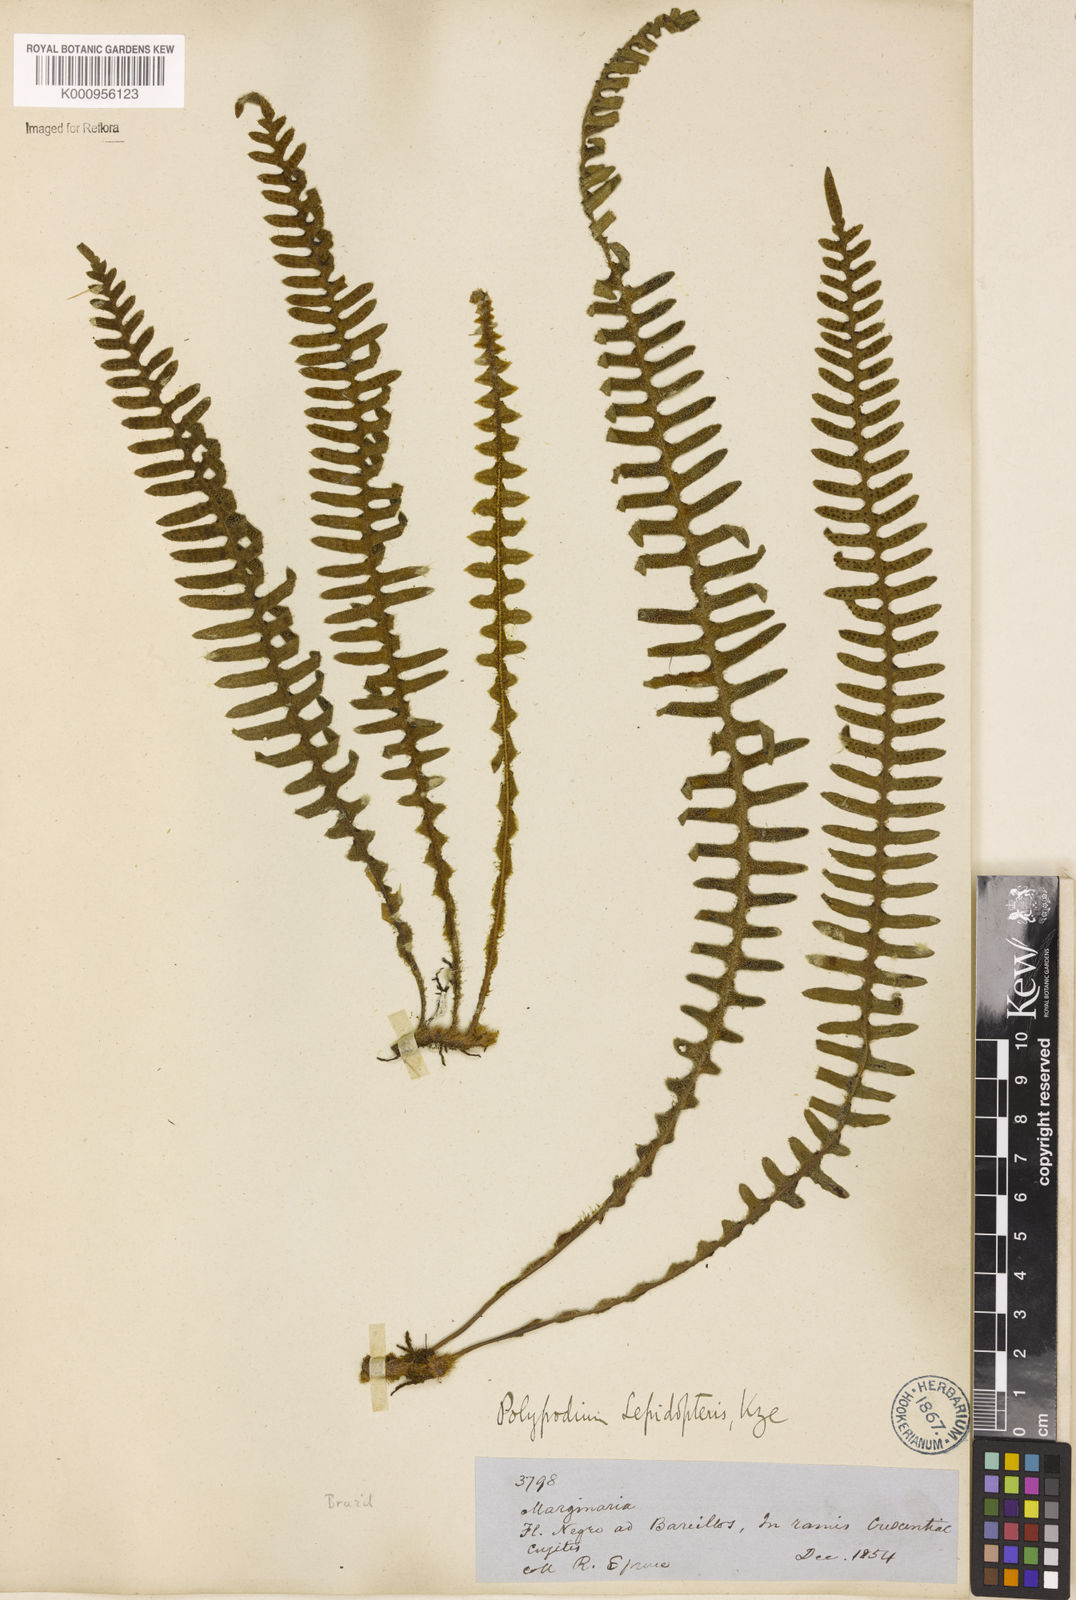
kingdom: Plantae
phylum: Tracheophyta
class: Polypodiopsida
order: Polypodiales
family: Polypodiaceae
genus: Pleopeltis
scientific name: Pleopeltis bombycina
